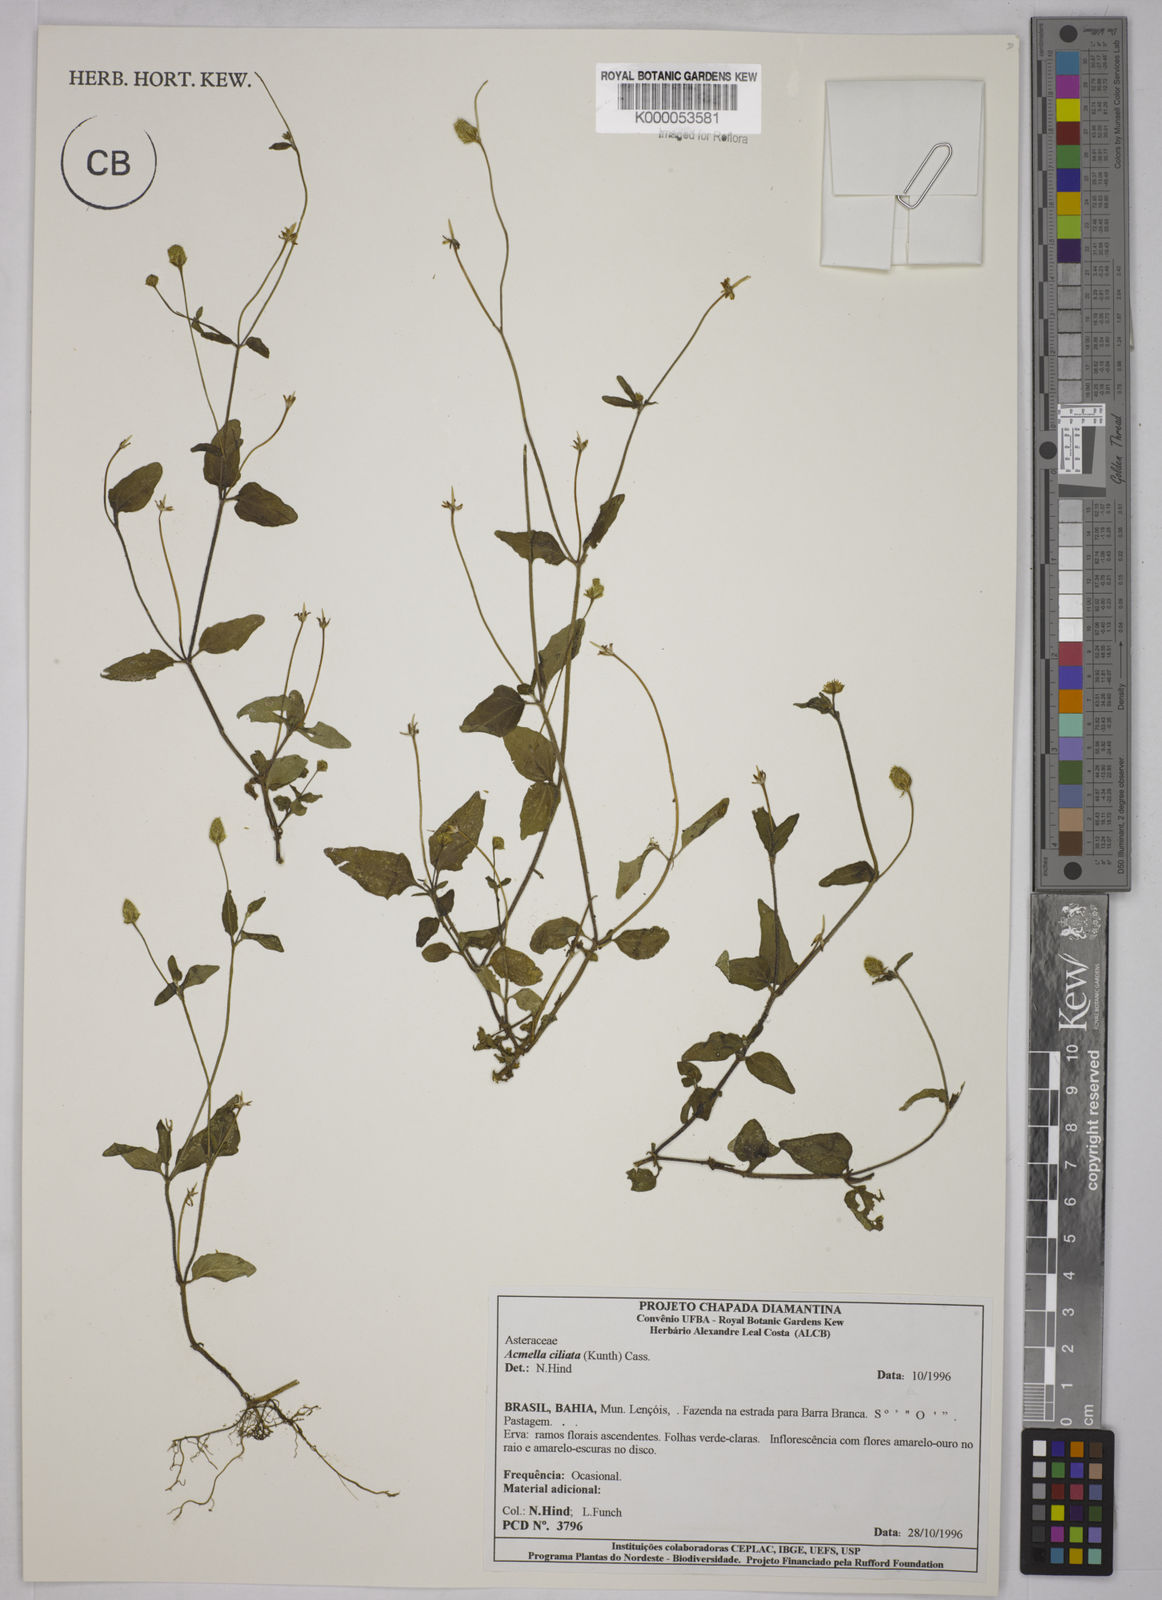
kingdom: Plantae
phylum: Tracheophyta
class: Magnoliopsida
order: Asterales
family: Asteraceae
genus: Acmella
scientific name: Acmella ciliata
